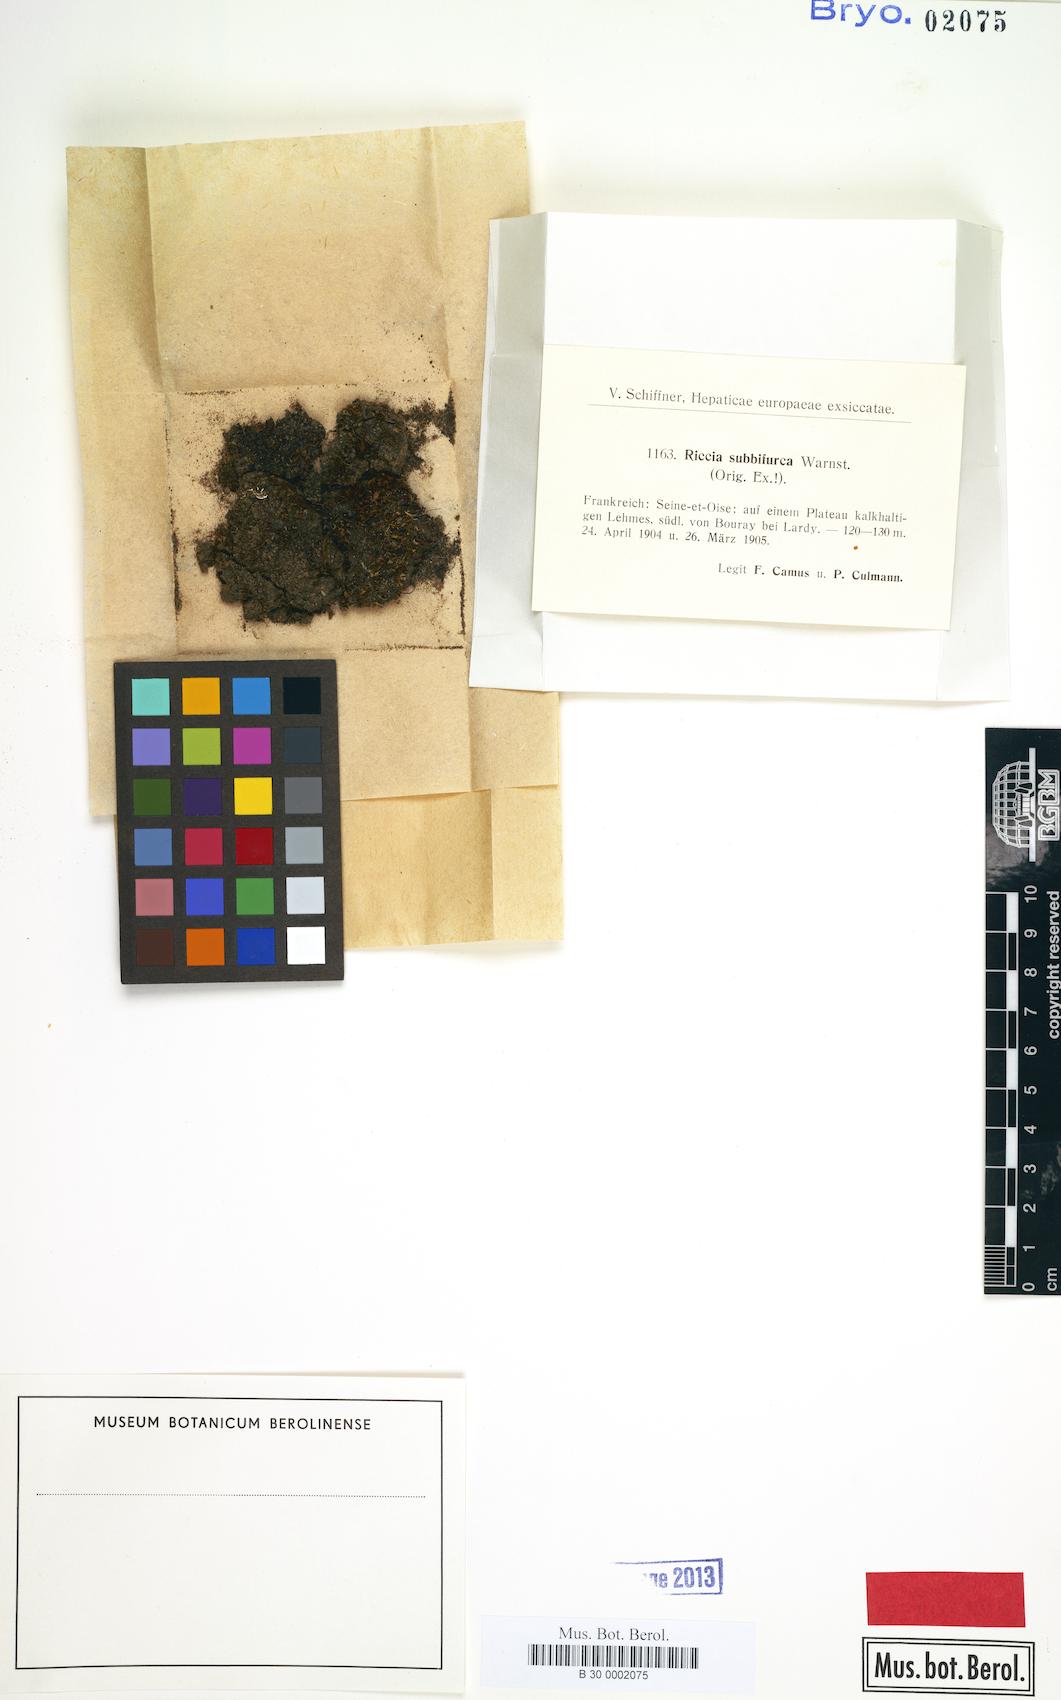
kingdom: Plantae
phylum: Marchantiophyta
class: Marchantiopsida
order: Marchantiales
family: Ricciaceae
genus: Riccia
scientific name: Riccia subbifurca
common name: Least crystalwort
